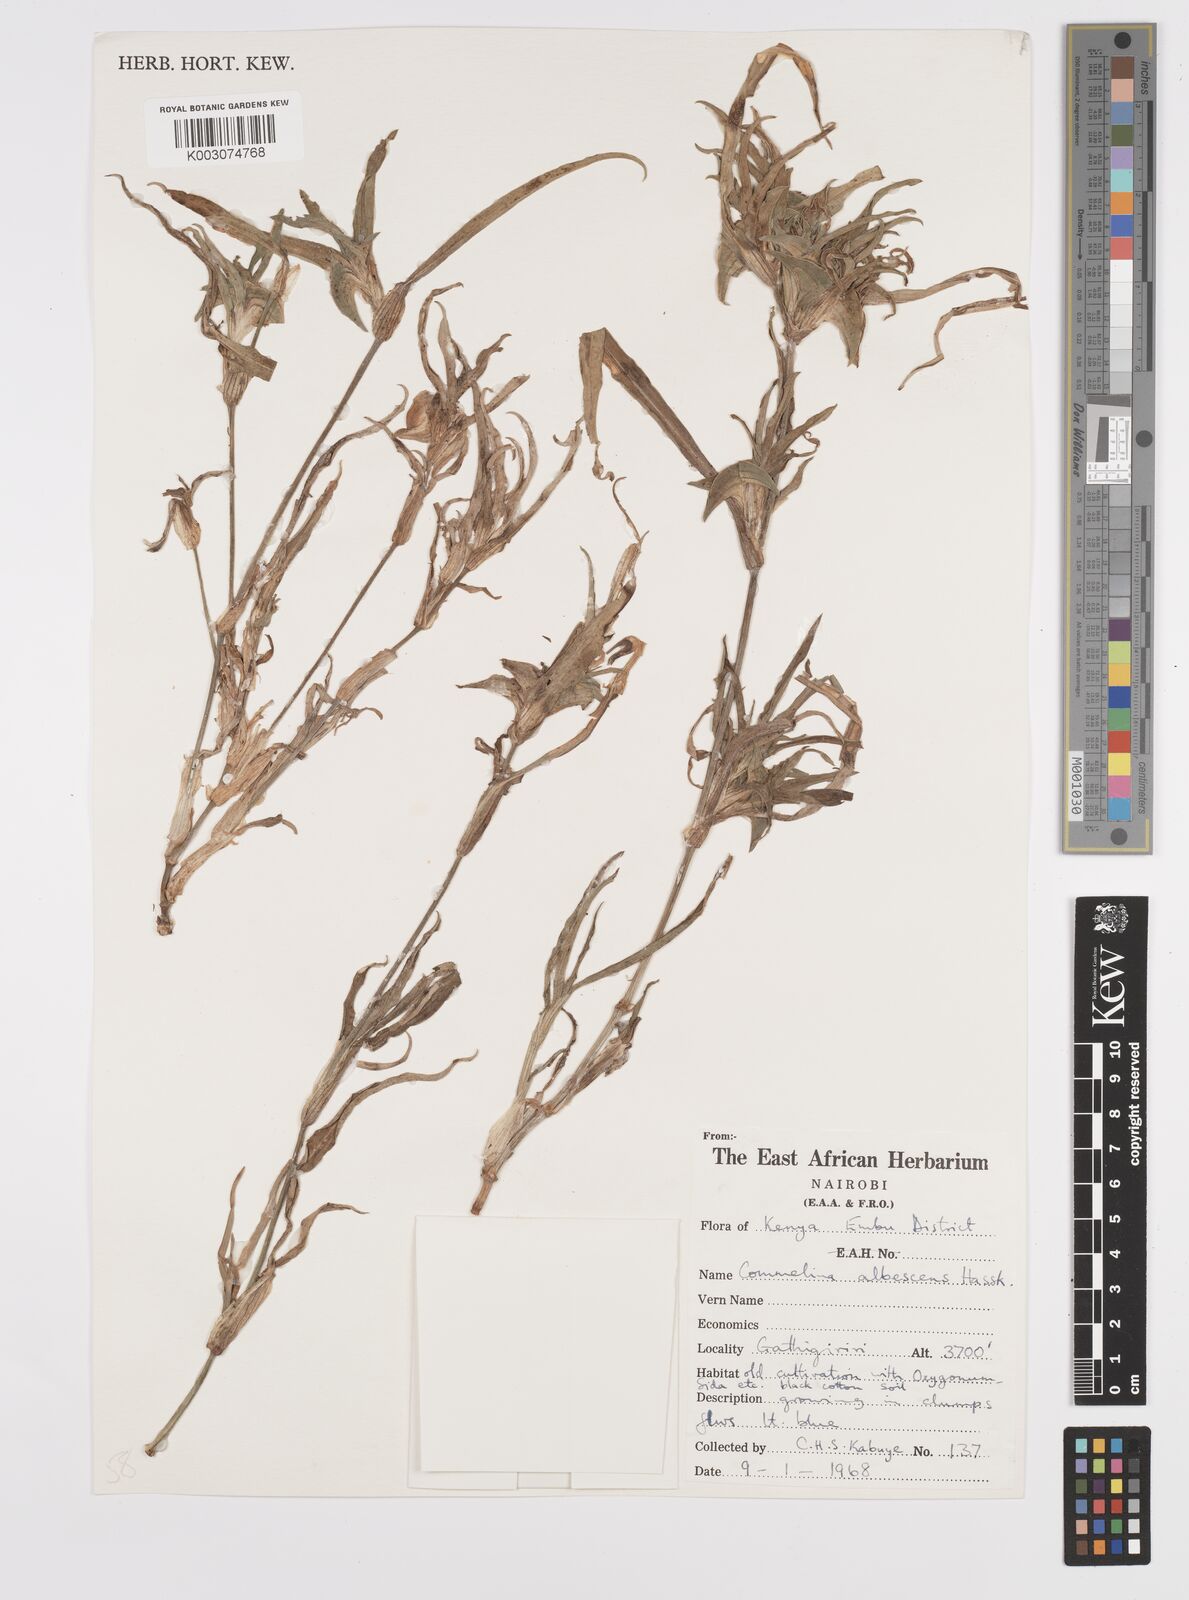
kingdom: Plantae
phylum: Tracheophyta
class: Liliopsida
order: Commelinales
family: Commelinaceae
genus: Commelina
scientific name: Commelina albescens
